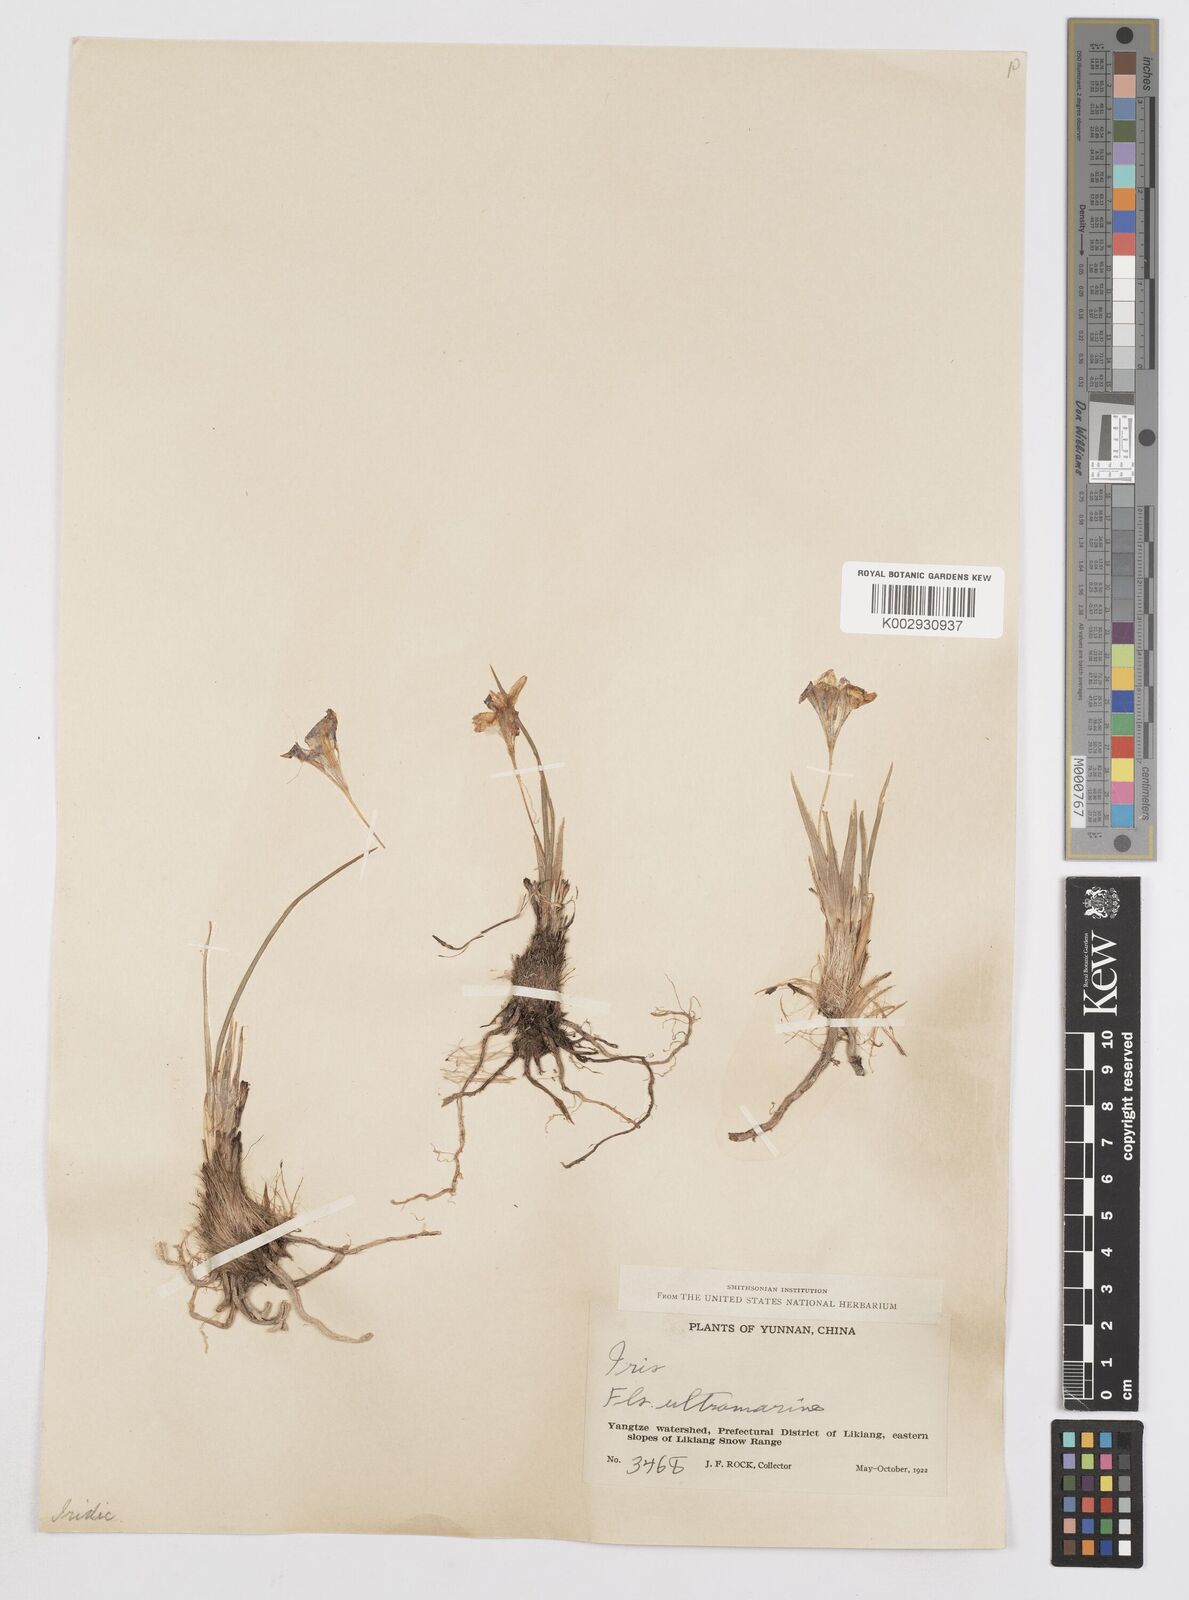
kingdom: Plantae
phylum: Tracheophyta
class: Liliopsida
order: Asparagales
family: Iridaceae
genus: Iris
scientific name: Iris collettii
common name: Plateau iris
